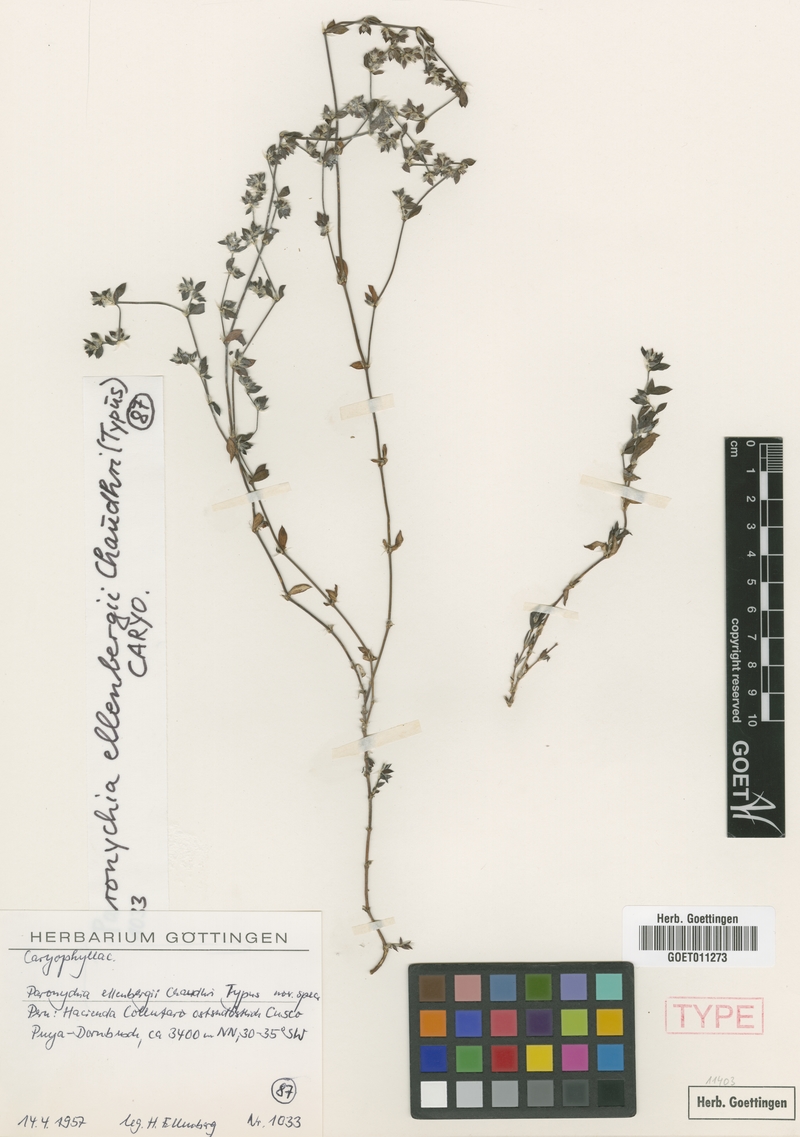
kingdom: Plantae
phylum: Tracheophyta
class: Magnoliopsida
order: Caryophyllales
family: Caryophyllaceae
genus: Paronychia
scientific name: Paronychia ellenbergii
